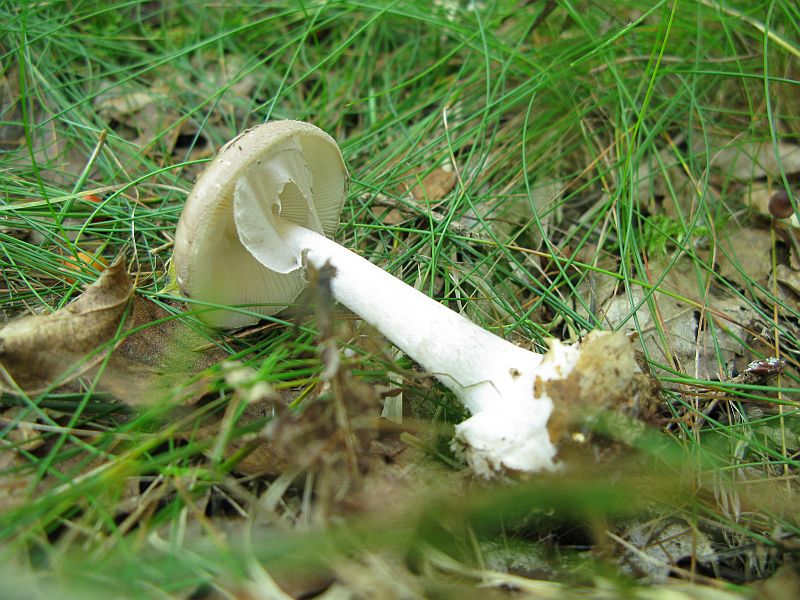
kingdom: Fungi
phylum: Basidiomycota
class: Agaricomycetes
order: Agaricales
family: Amanitaceae
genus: Amanita
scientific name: Amanita porphyria
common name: porfyr-fluesvamp
